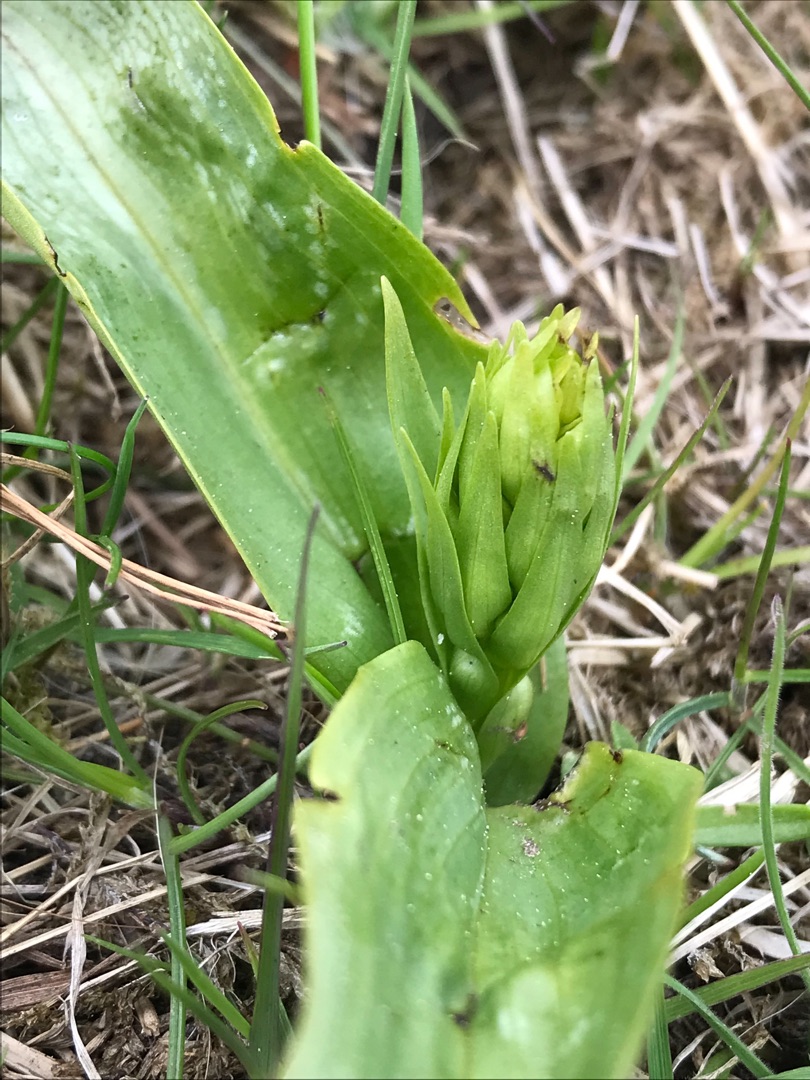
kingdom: Plantae
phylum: Tracheophyta
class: Liliopsida
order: Asparagales
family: Orchidaceae
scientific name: Orchidaceae
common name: Orkidéfamilien
